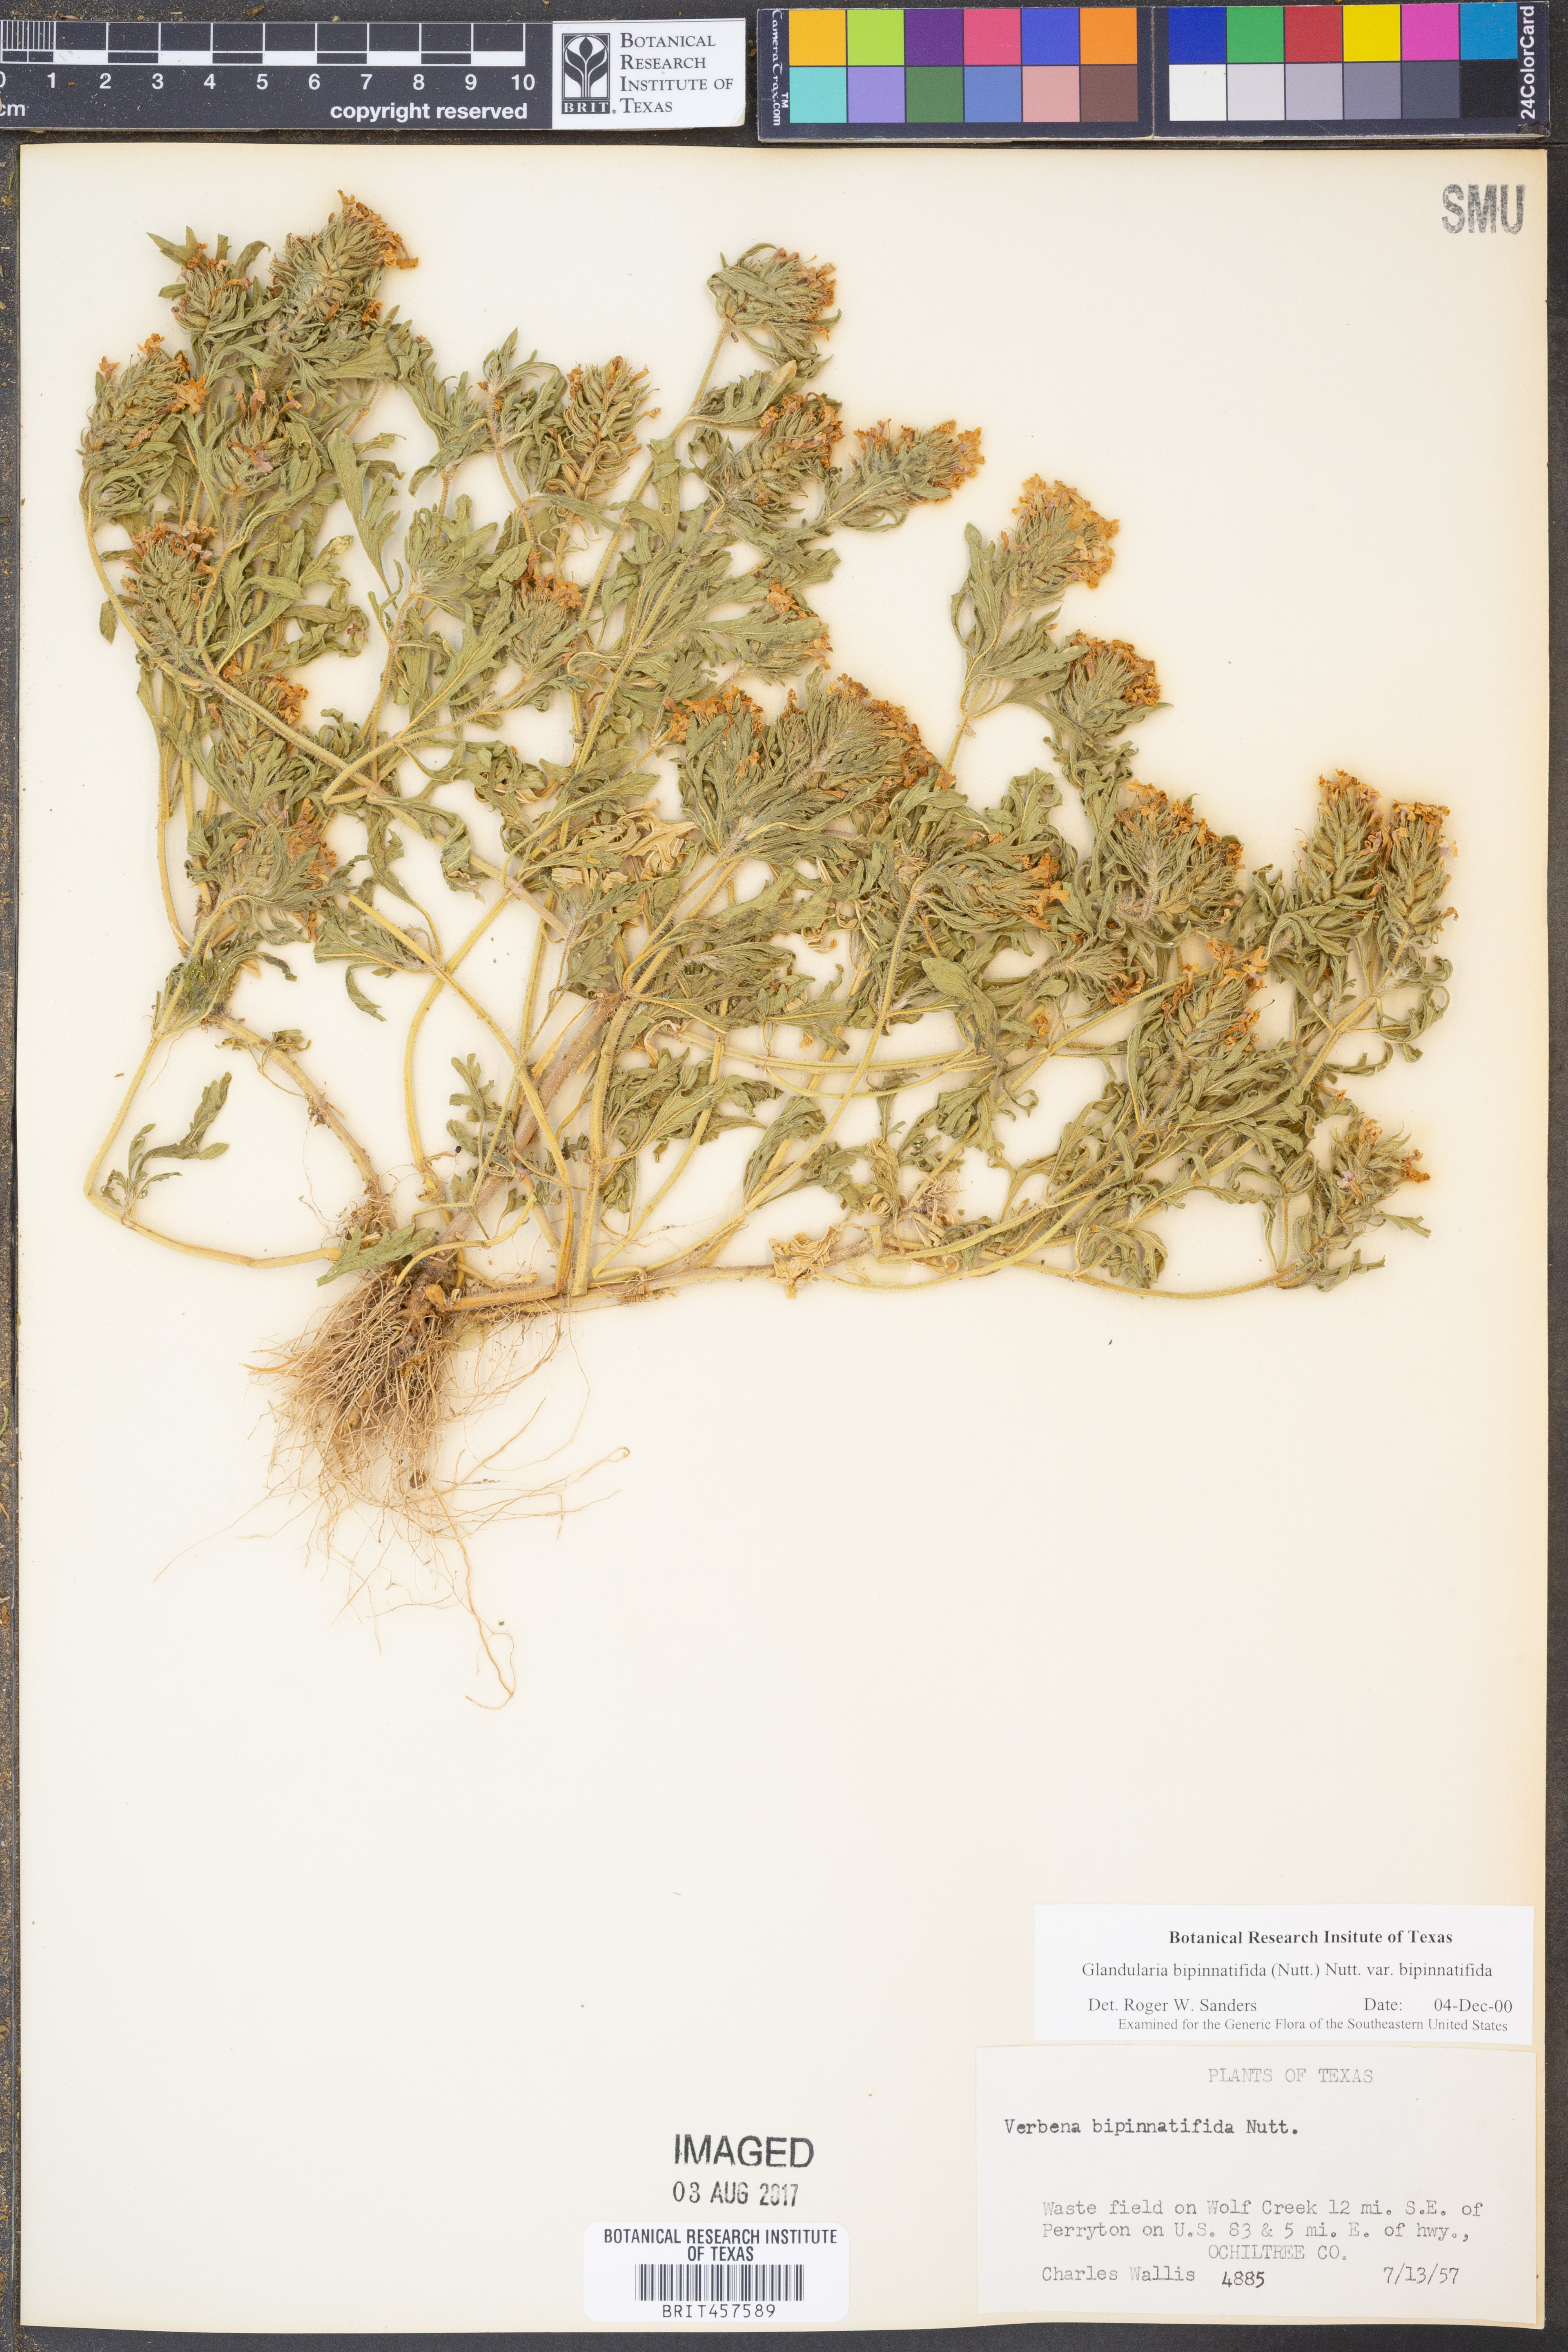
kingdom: Plantae
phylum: Tracheophyta
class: Magnoliopsida
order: Lamiales
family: Verbenaceae
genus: Verbena
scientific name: Verbena bipinnatifida
